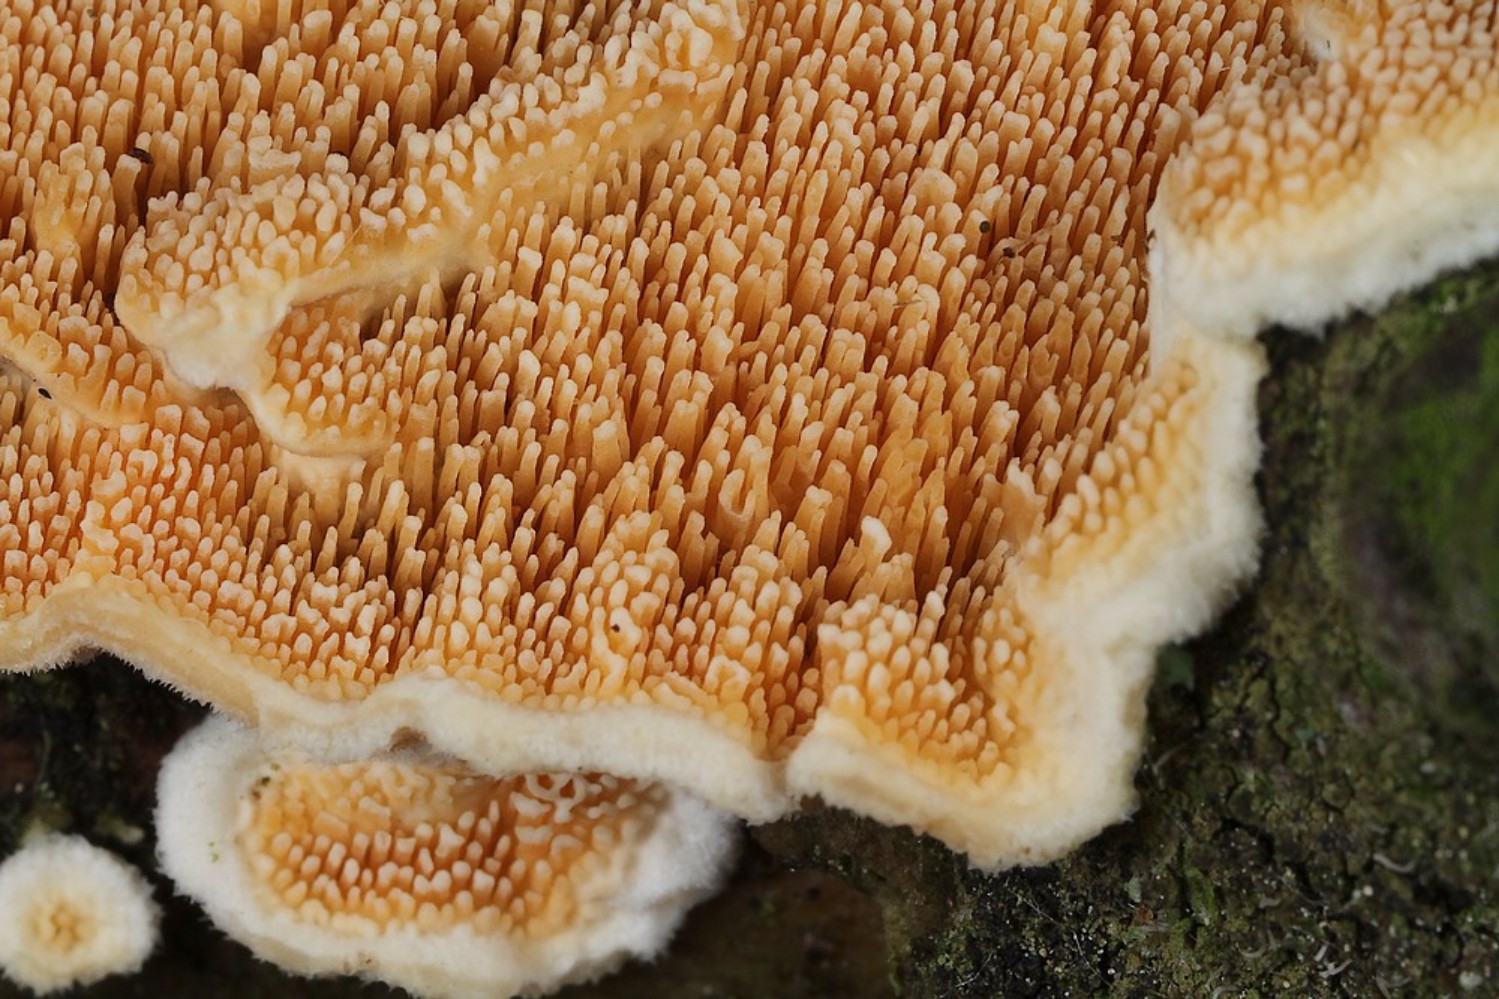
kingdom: Fungi
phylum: Basidiomycota
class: Agaricomycetes
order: Polyporales
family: Steccherinaceae
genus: Steccherinum
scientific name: Steccherinum ochraceum
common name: almindelig skønpig
